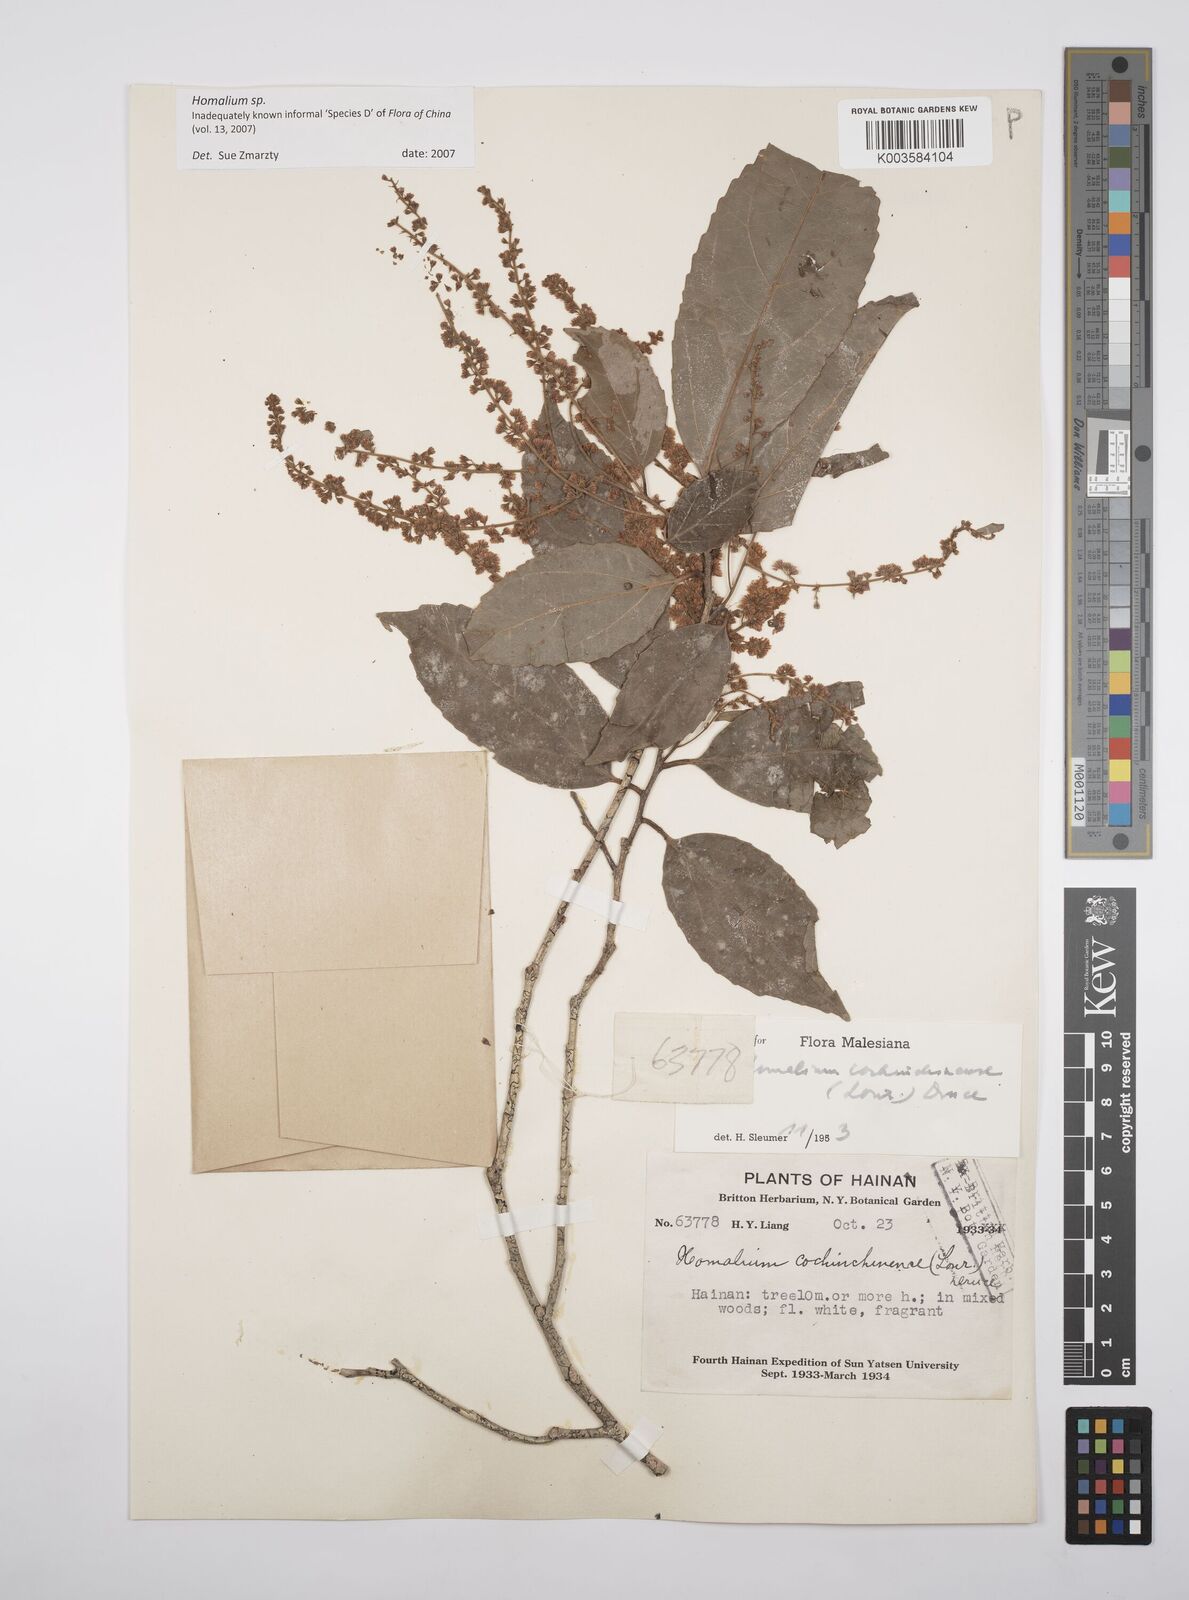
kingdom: Plantae
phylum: Tracheophyta
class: Magnoliopsida
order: Malpighiales
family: Salicaceae
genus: Homalium
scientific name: Homalium
